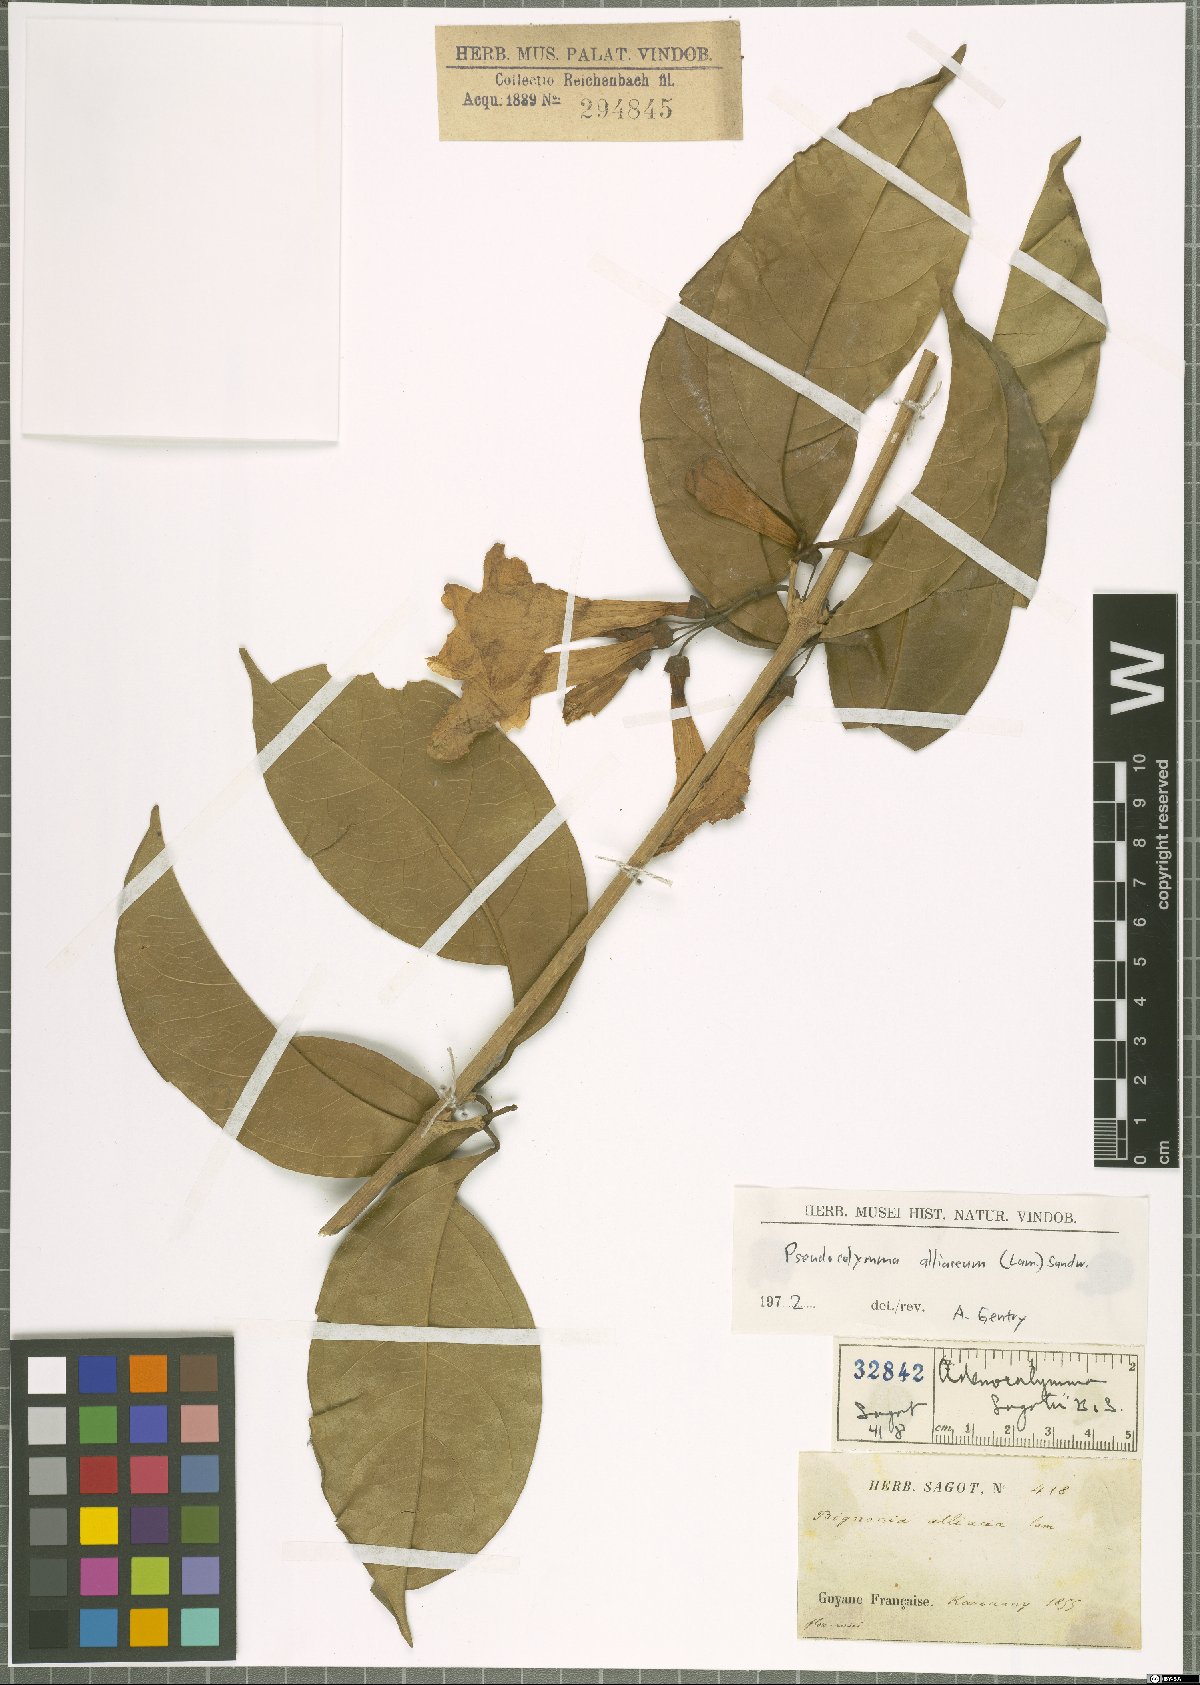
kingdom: Plantae
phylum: Tracheophyta
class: Magnoliopsida
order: Lamiales
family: Bignoniaceae
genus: Mansoa
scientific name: Mansoa alliacea
